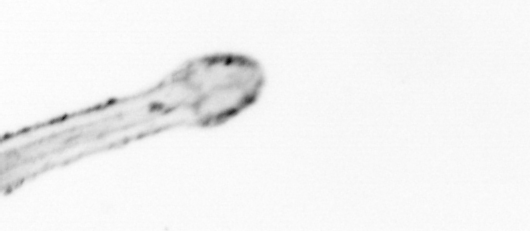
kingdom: Animalia
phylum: Chaetognatha
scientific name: Chaetognatha
